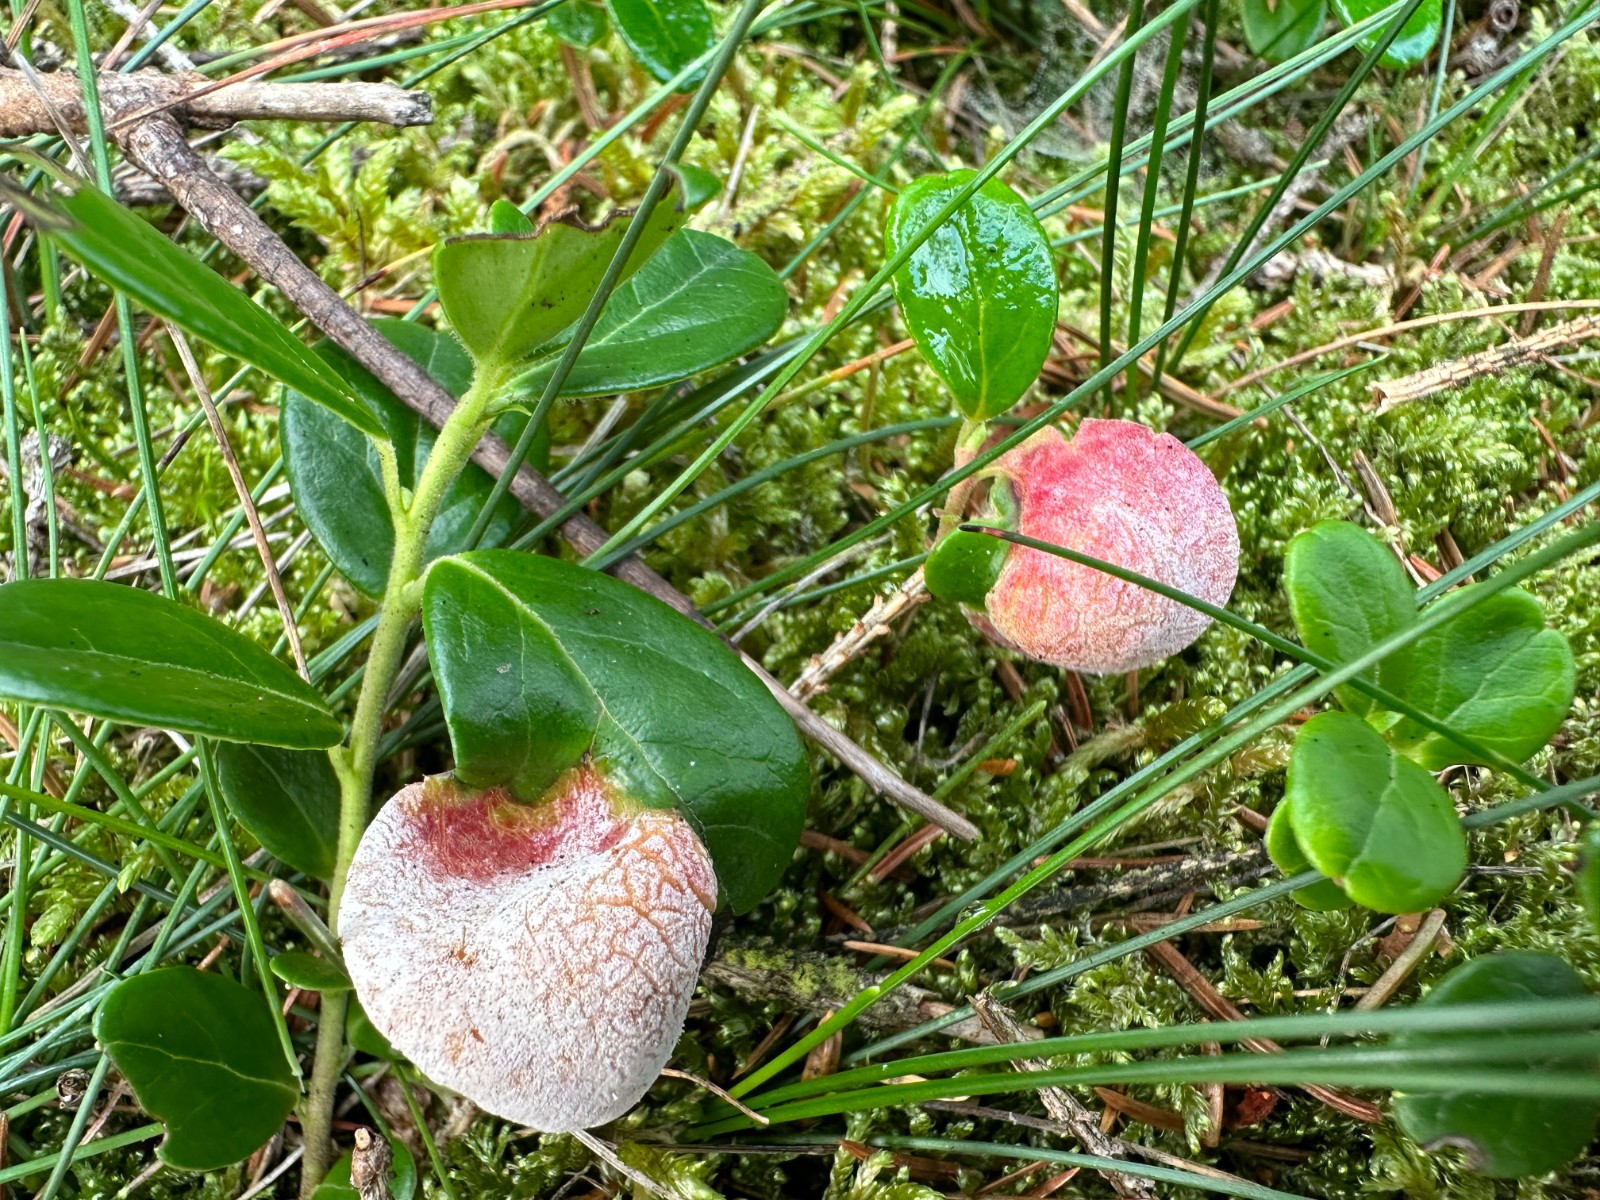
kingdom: Fungi
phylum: Basidiomycota
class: Exobasidiomycetes
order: Exobasidiales
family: Exobasidiaceae
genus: Exobasidium
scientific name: Exobasidium vaccinii
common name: tyttebærblad-bøllesvamp
